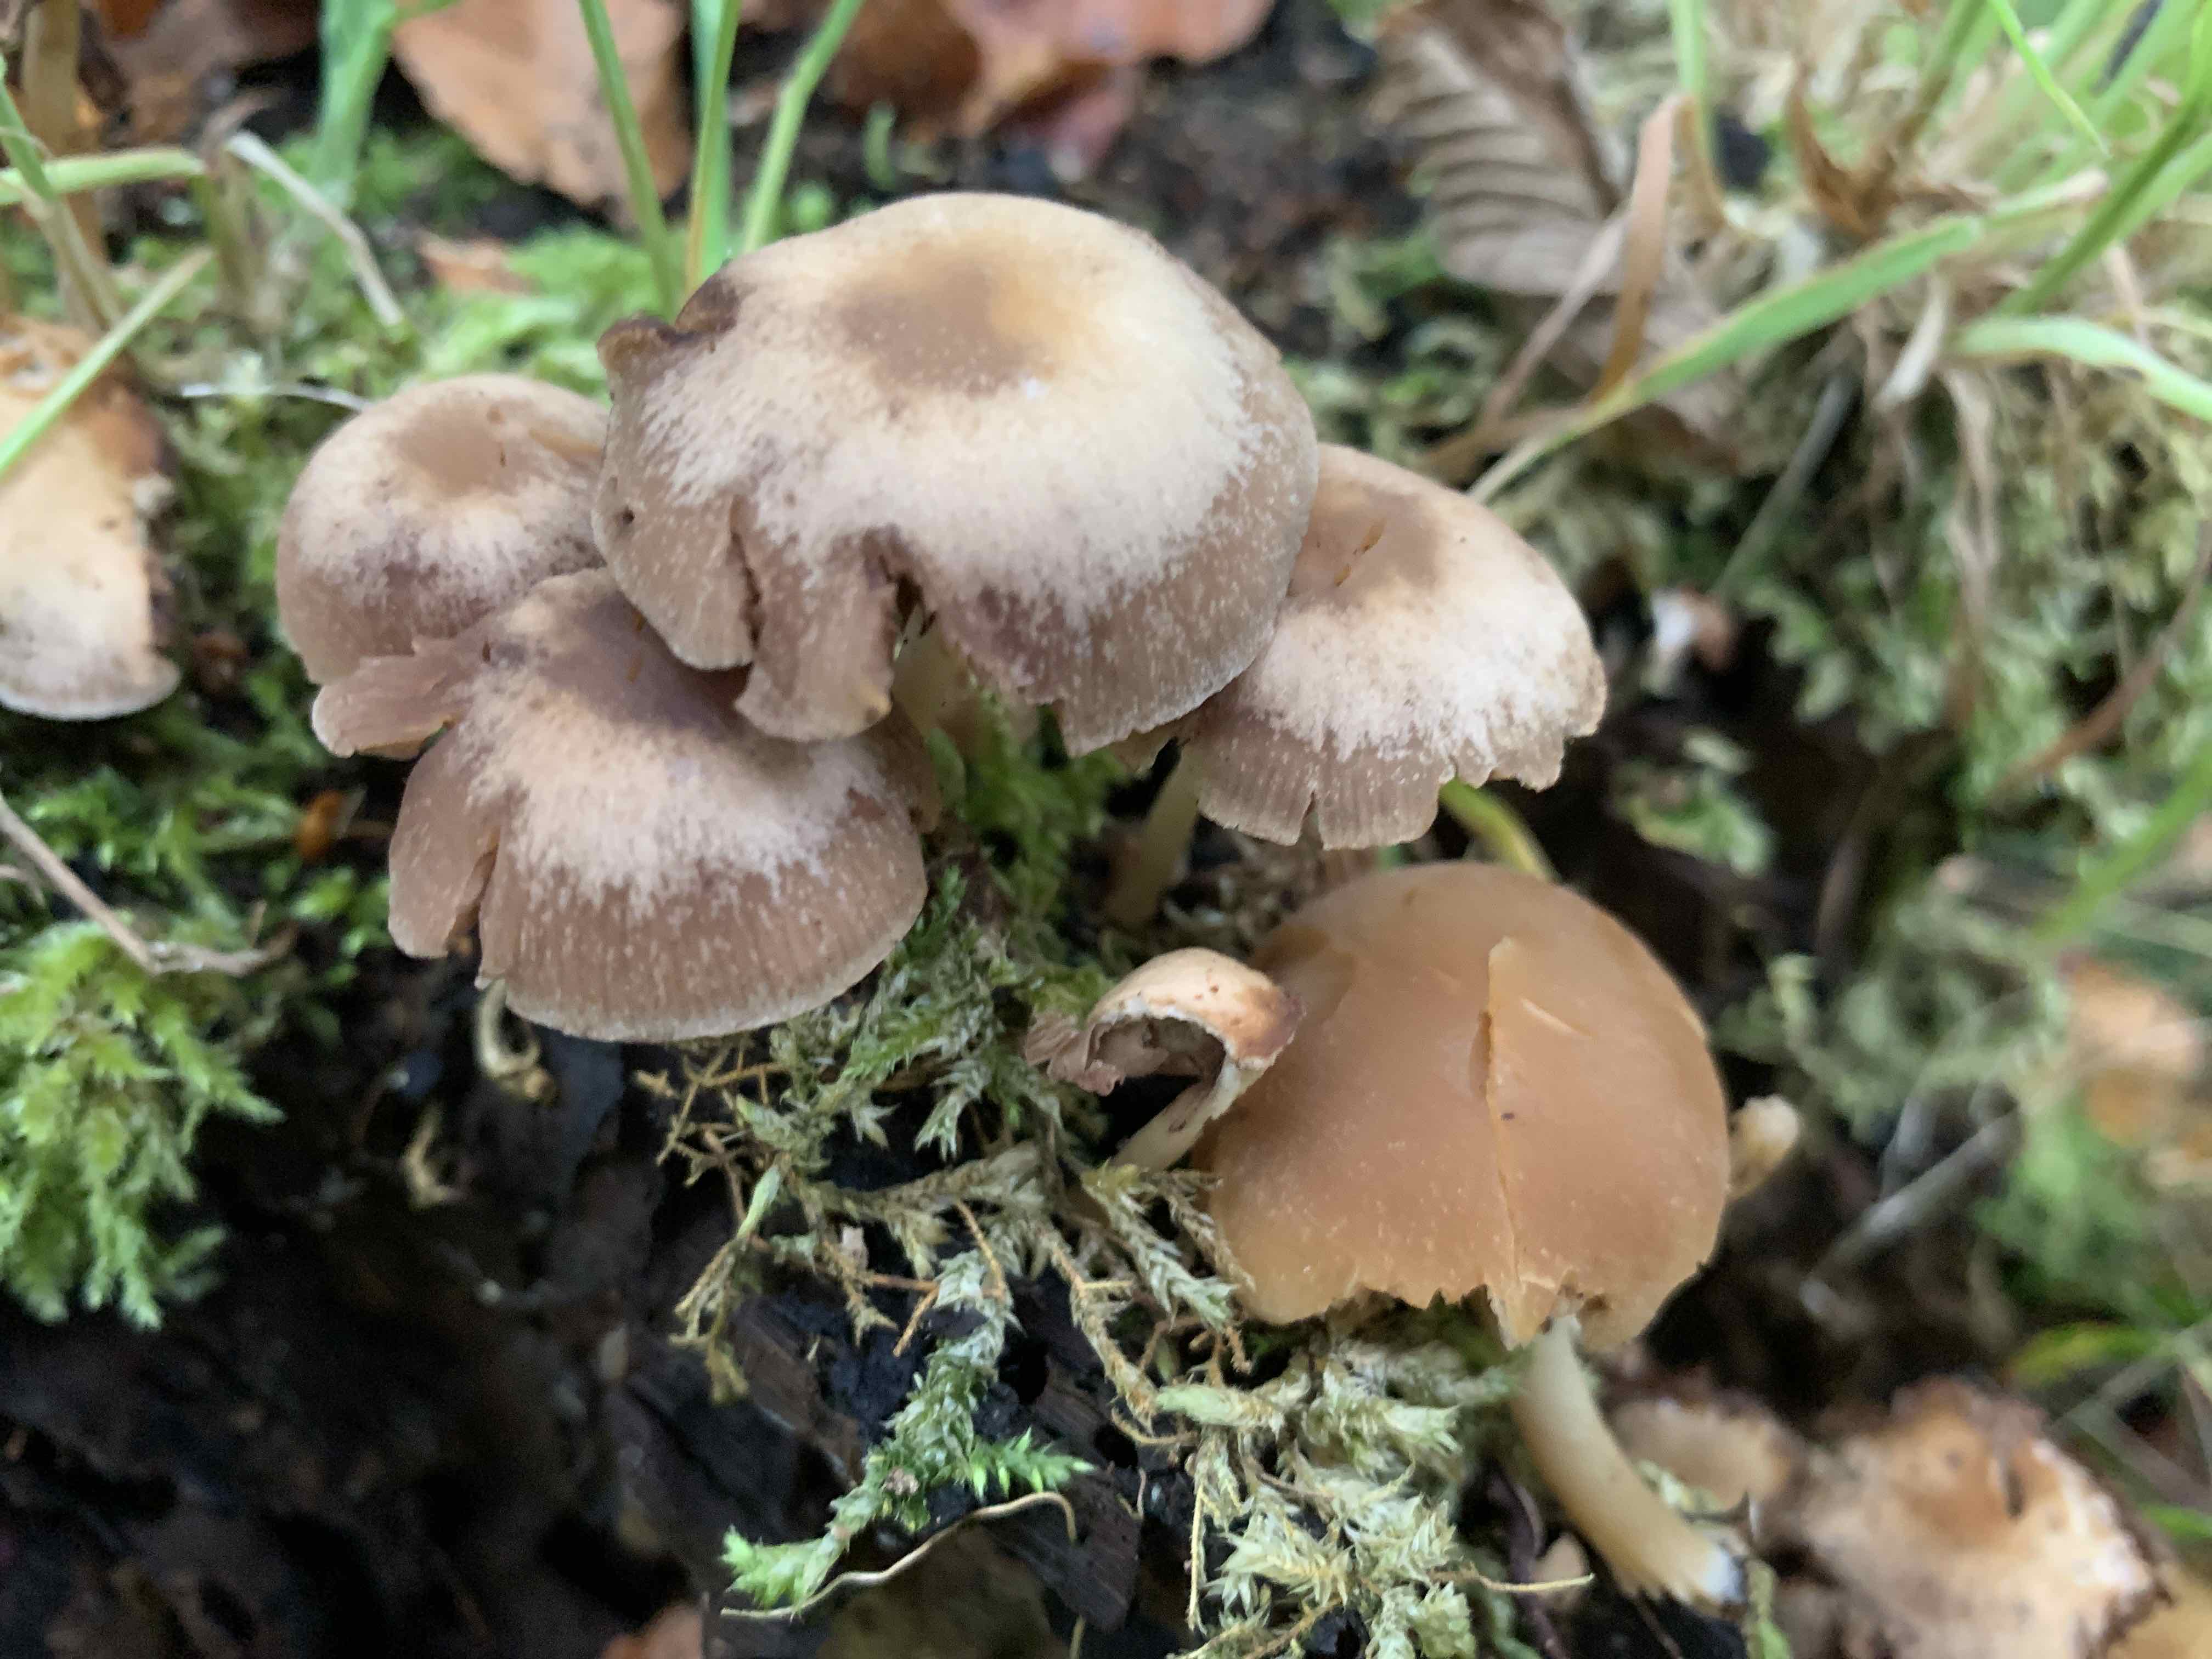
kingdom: Fungi
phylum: Basidiomycota
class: Agaricomycetes
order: Agaricales
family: Psathyrellaceae
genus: Psathyrella
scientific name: Psathyrella piluliformis
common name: lysstokket mørkhat
